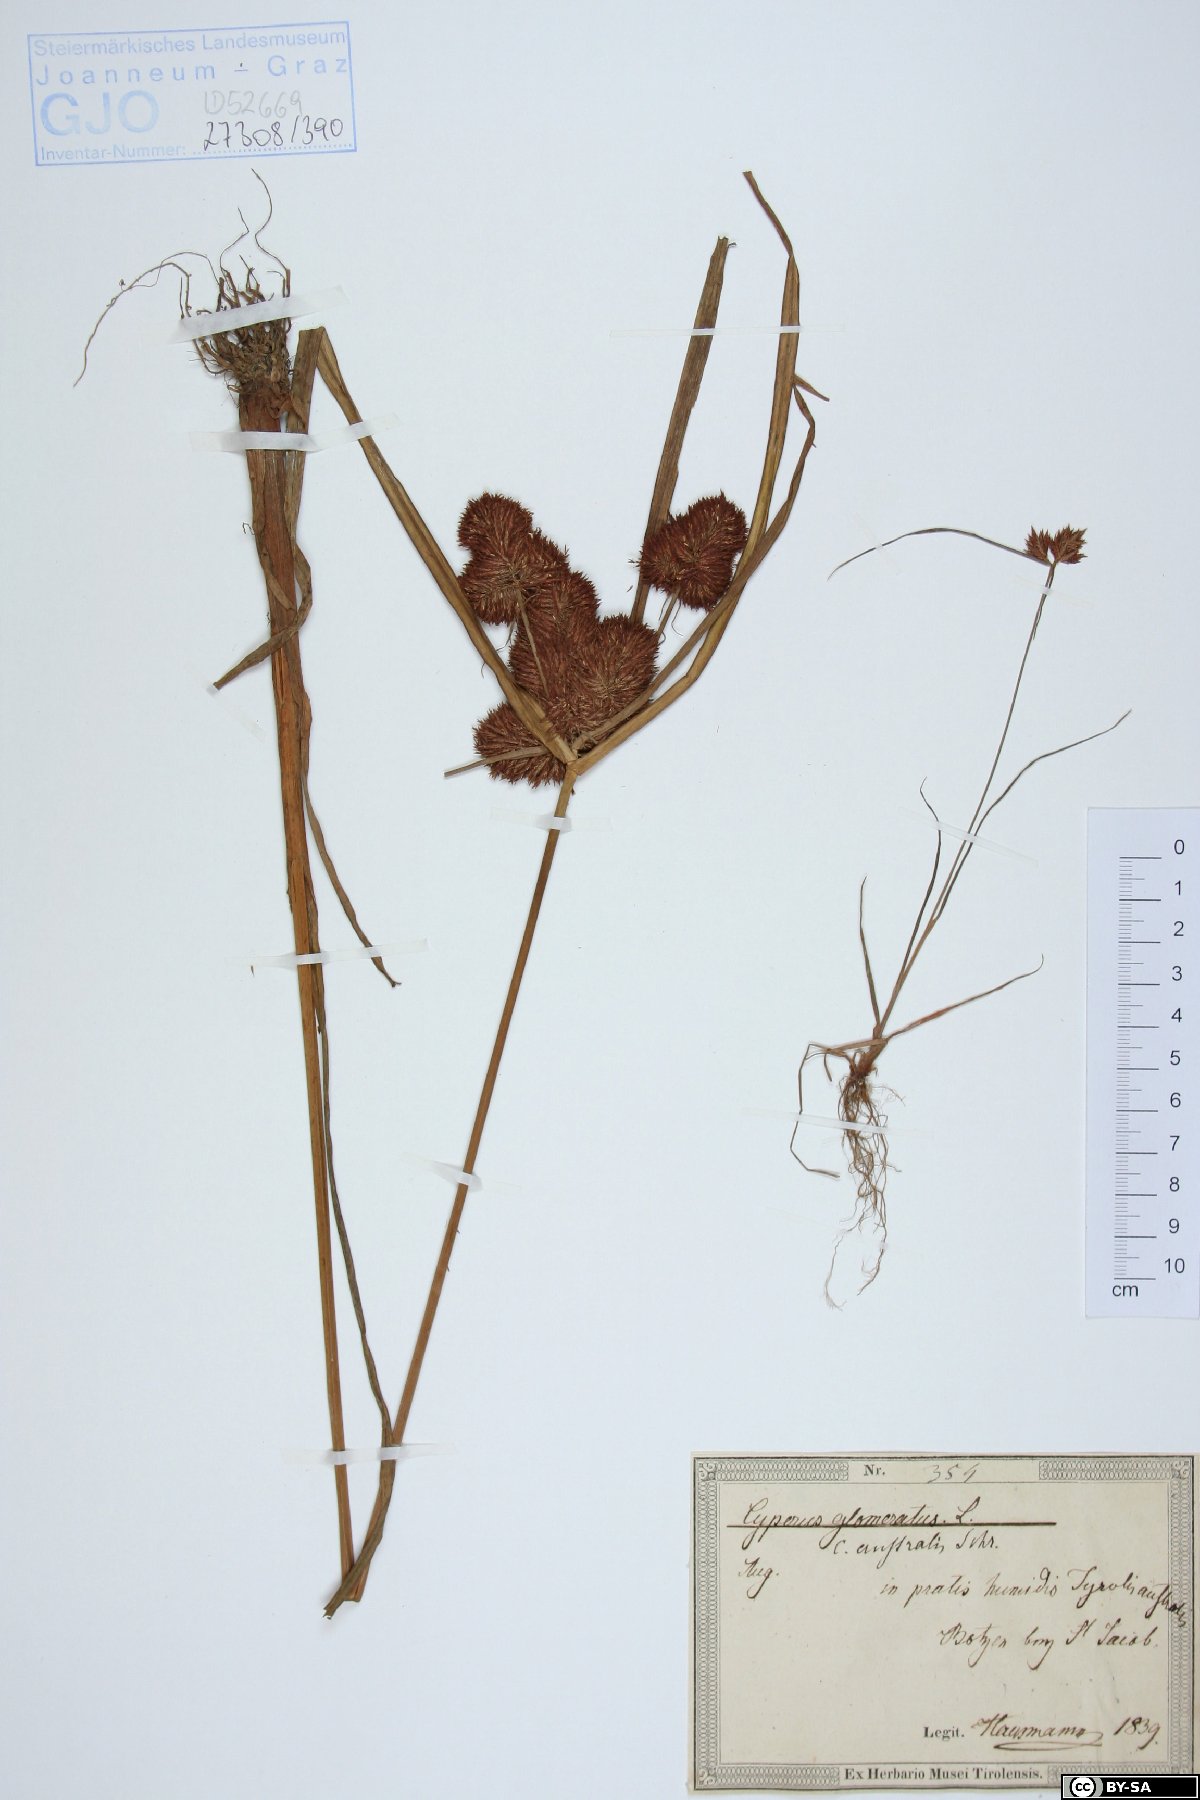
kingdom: Plantae
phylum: Tracheophyta
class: Liliopsida
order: Poales
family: Cyperaceae
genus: Cyperus
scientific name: Cyperus glomeratus
